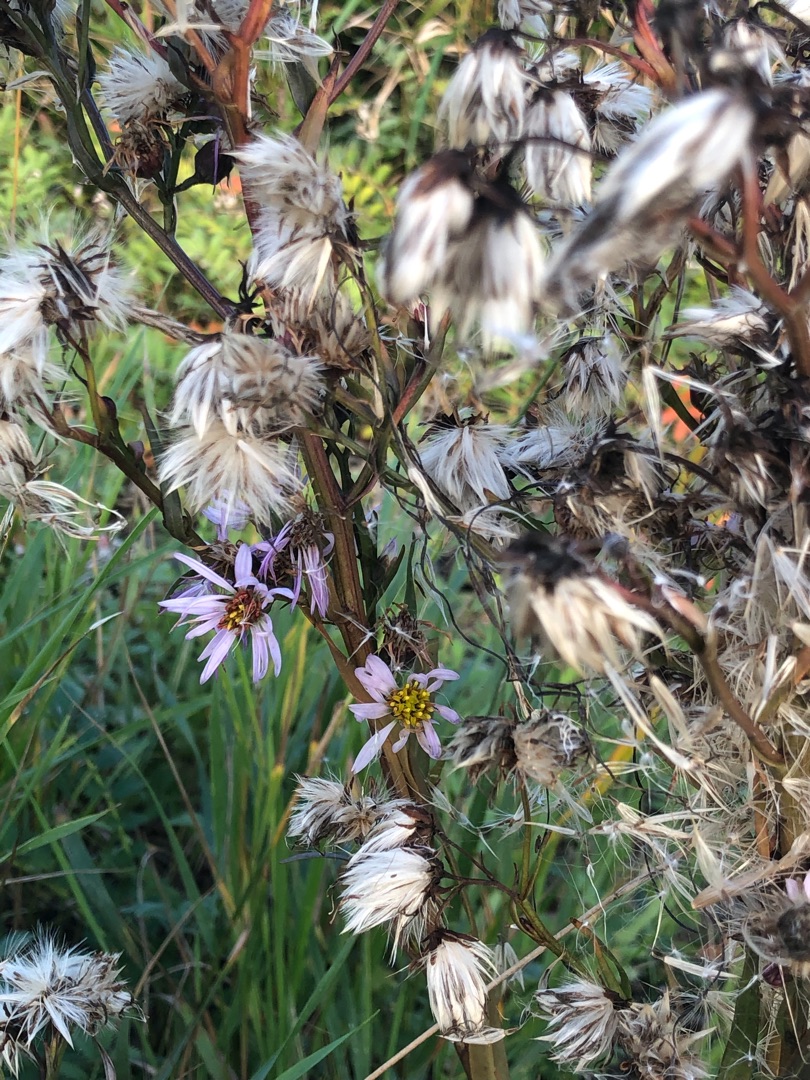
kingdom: Plantae
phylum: Tracheophyta
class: Magnoliopsida
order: Asterales
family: Asteraceae
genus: Tripolium
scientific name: Tripolium pannonicum
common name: Strandasters
